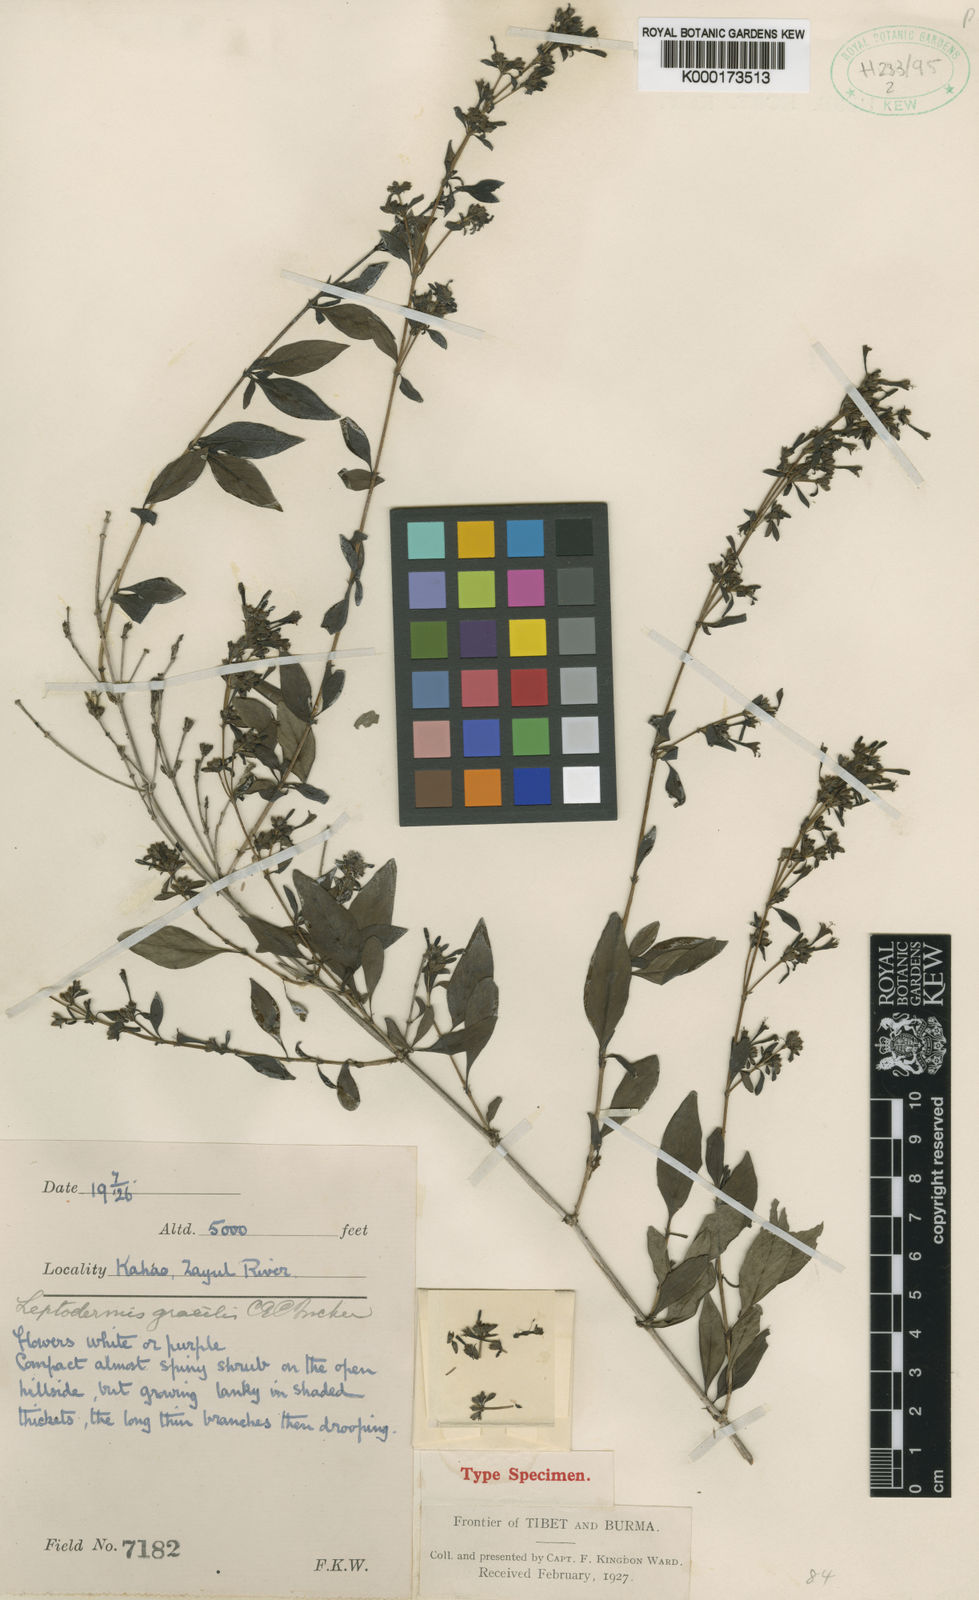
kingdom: Plantae
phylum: Tracheophyta
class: Magnoliopsida
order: Gentianales
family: Rubiaceae
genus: Leptodermis
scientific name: Leptodermis gracilis
